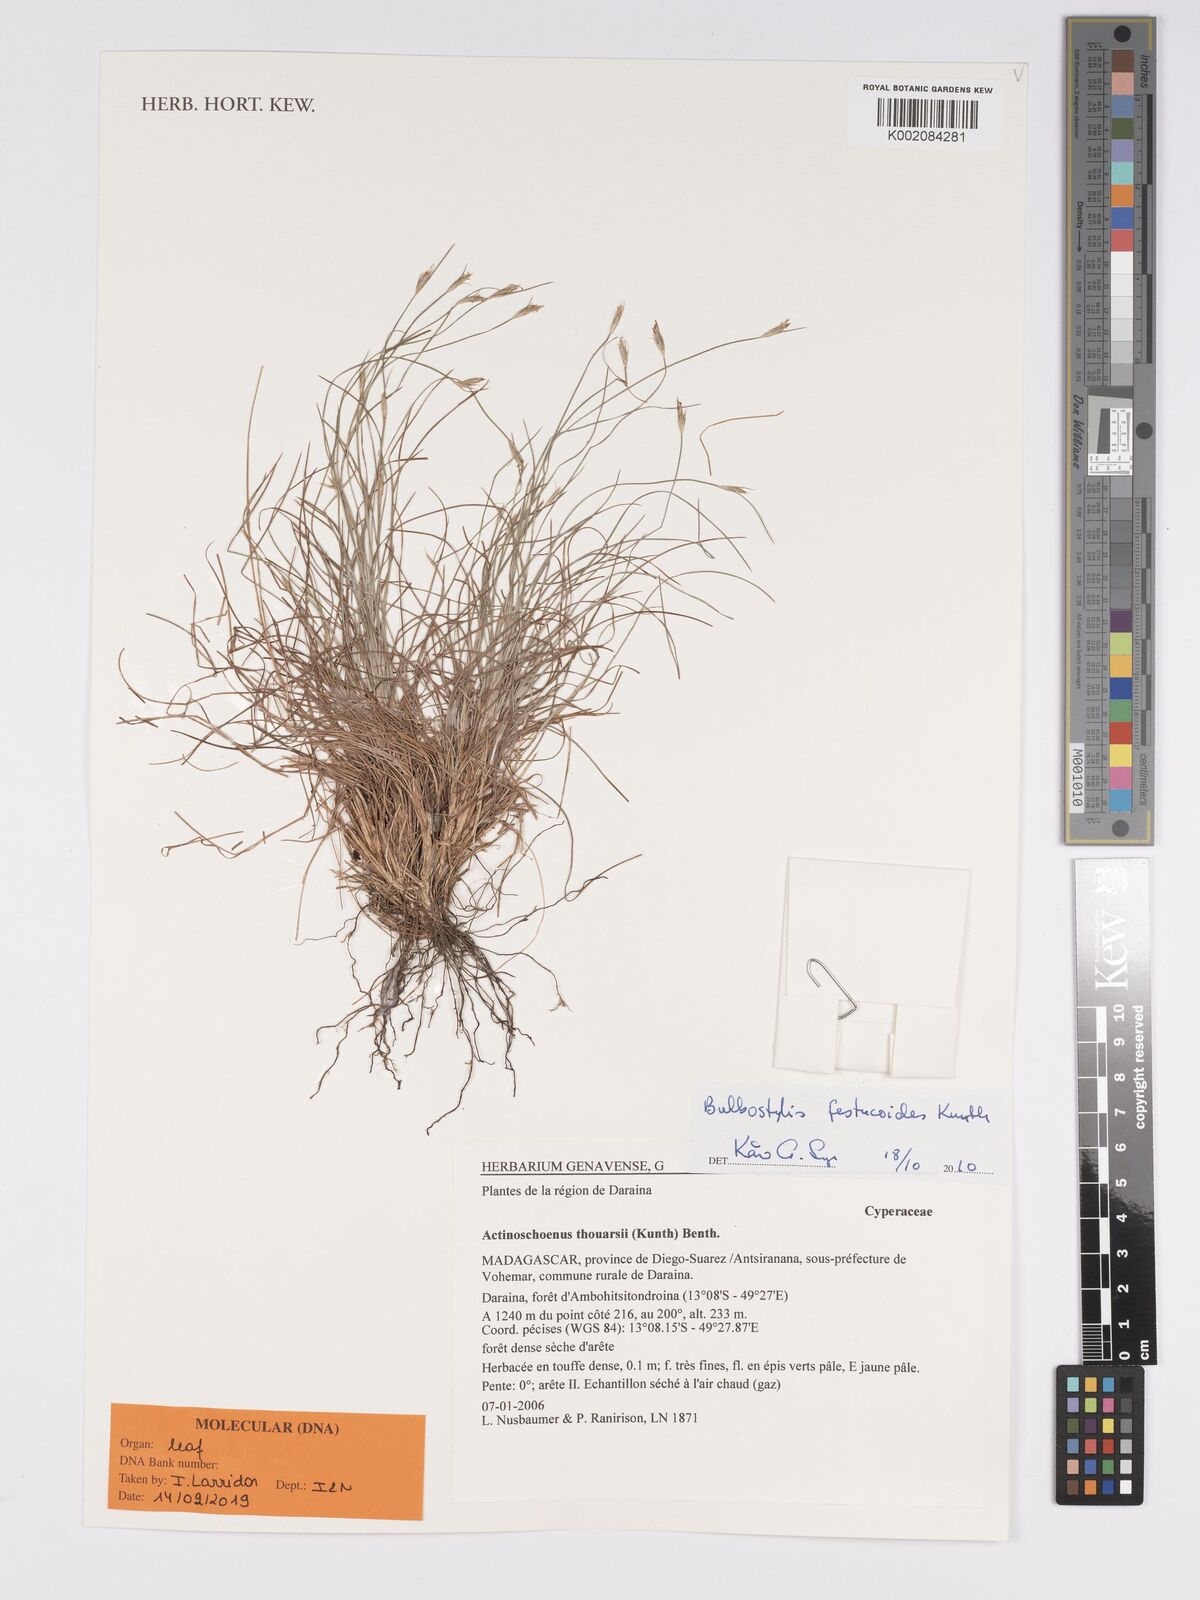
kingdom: Plantae
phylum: Tracheophyta
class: Liliopsida
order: Poales
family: Cyperaceae
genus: Bulbostylis
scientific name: Bulbostylis festucoides
